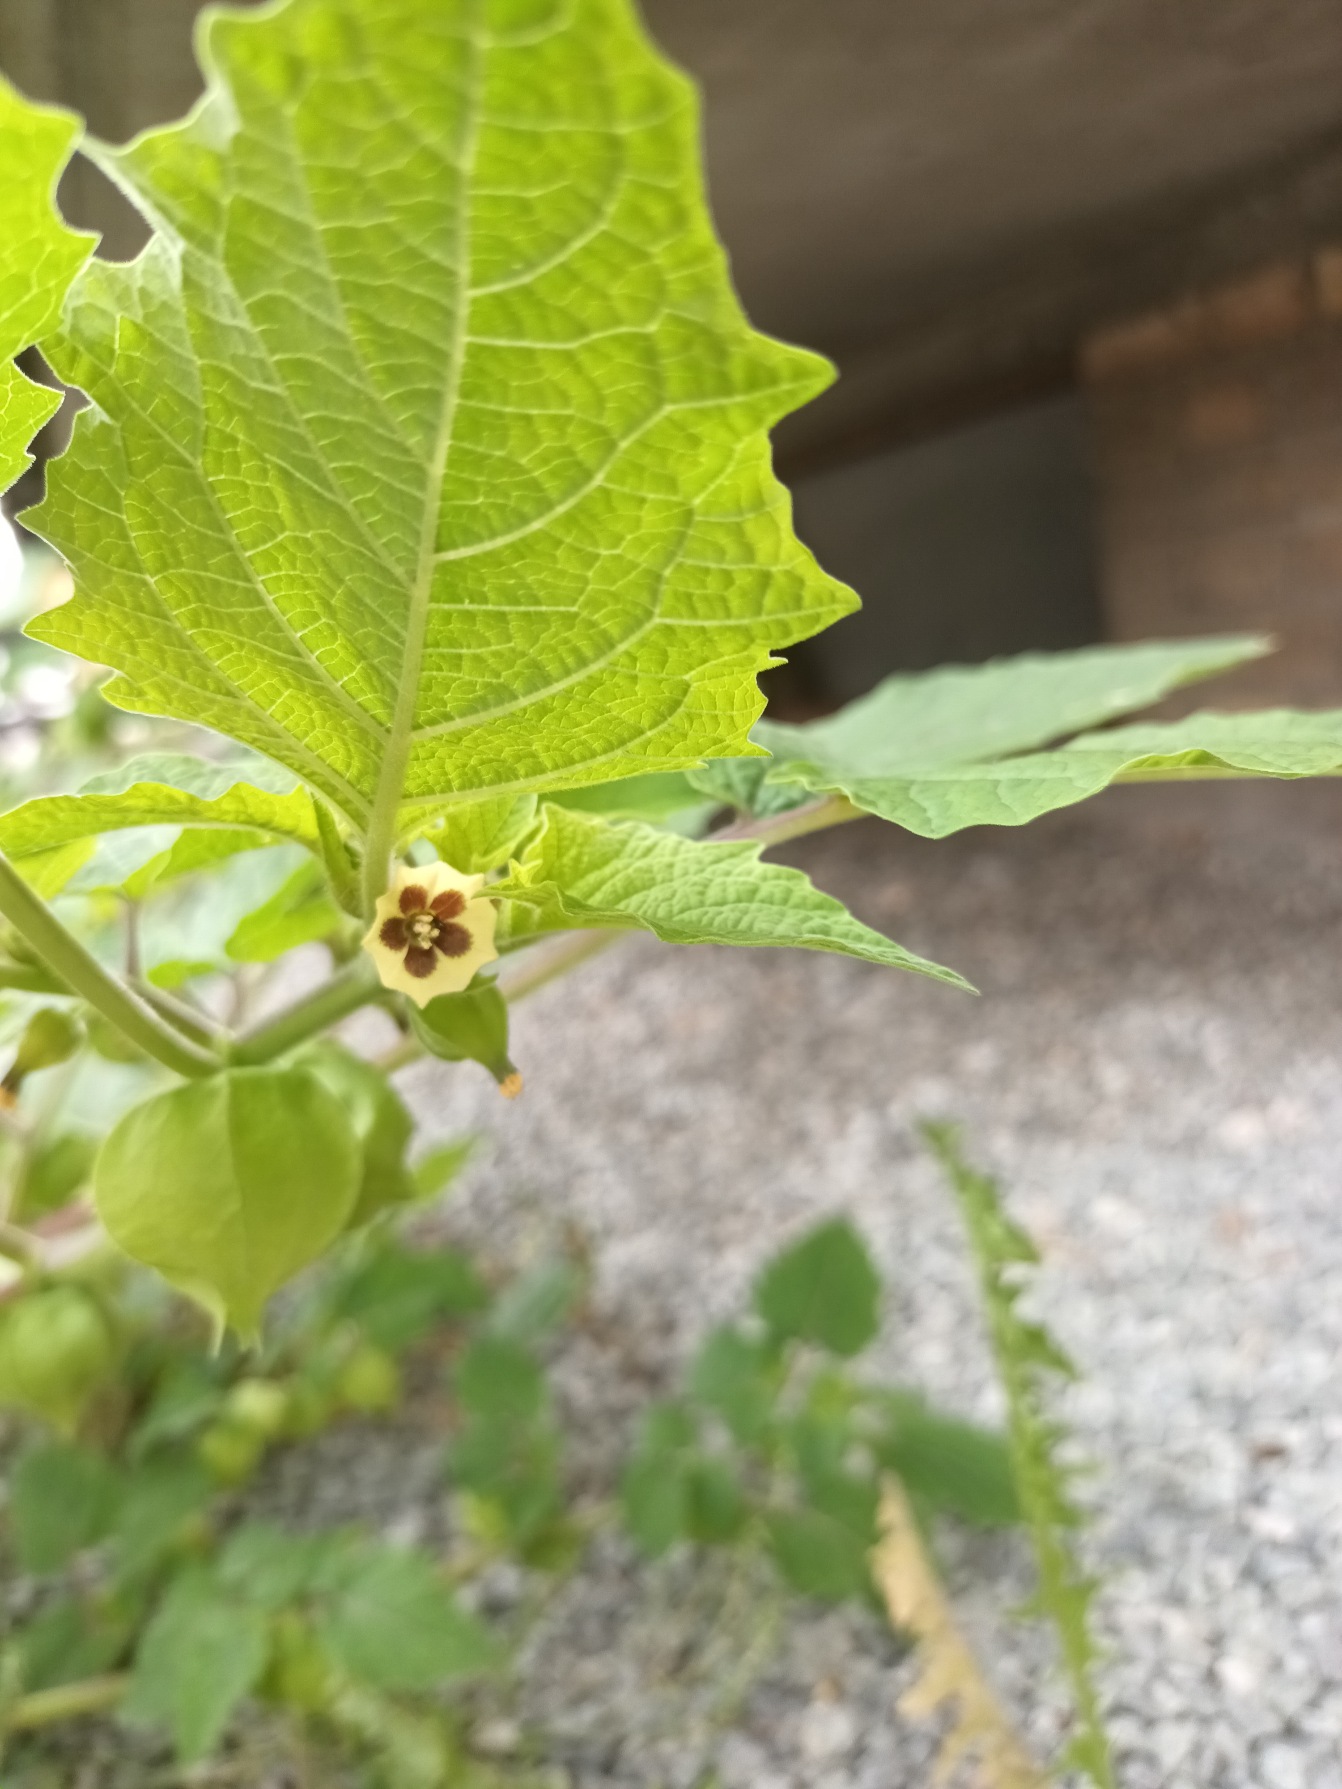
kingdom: Plantae
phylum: Tracheophyta
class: Magnoliopsida
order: Solanales
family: Solanaceae
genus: Physalis
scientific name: Physalis grisea
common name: Jordbærtomat
